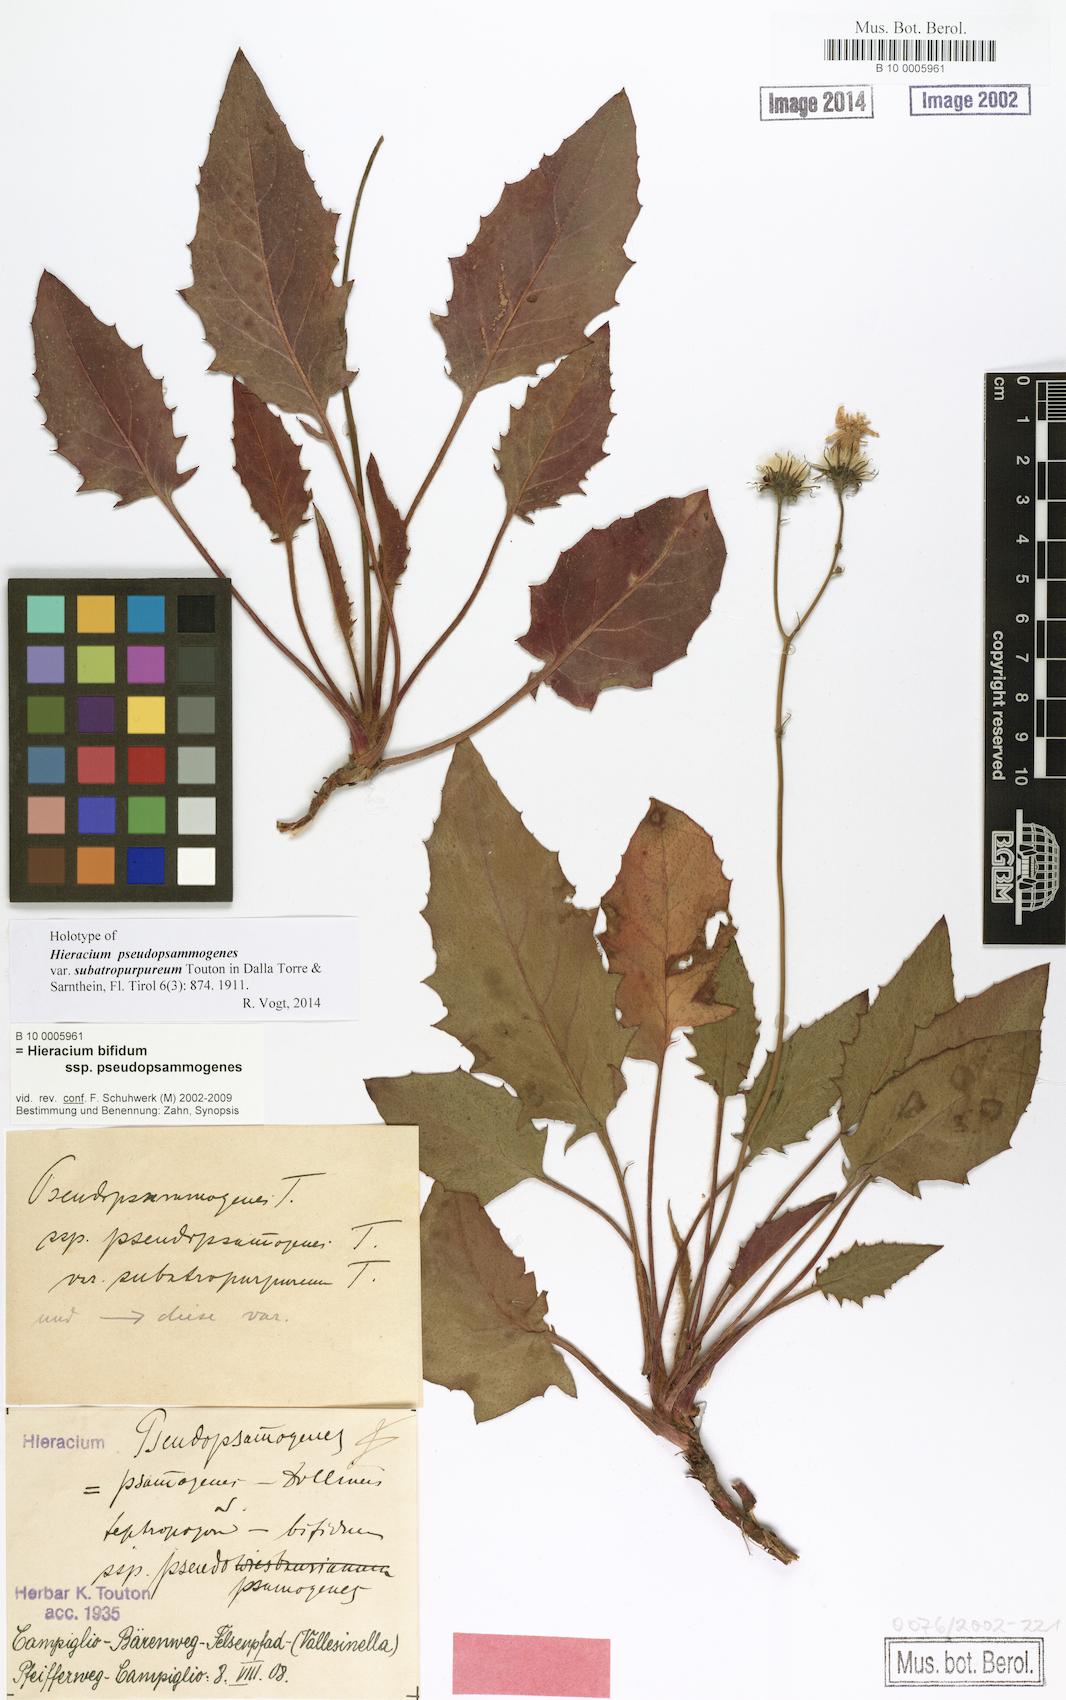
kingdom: Plantae
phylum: Tracheophyta
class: Magnoliopsida
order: Asterales
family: Asteraceae
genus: Hieracium
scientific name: Hieracium bifidum
